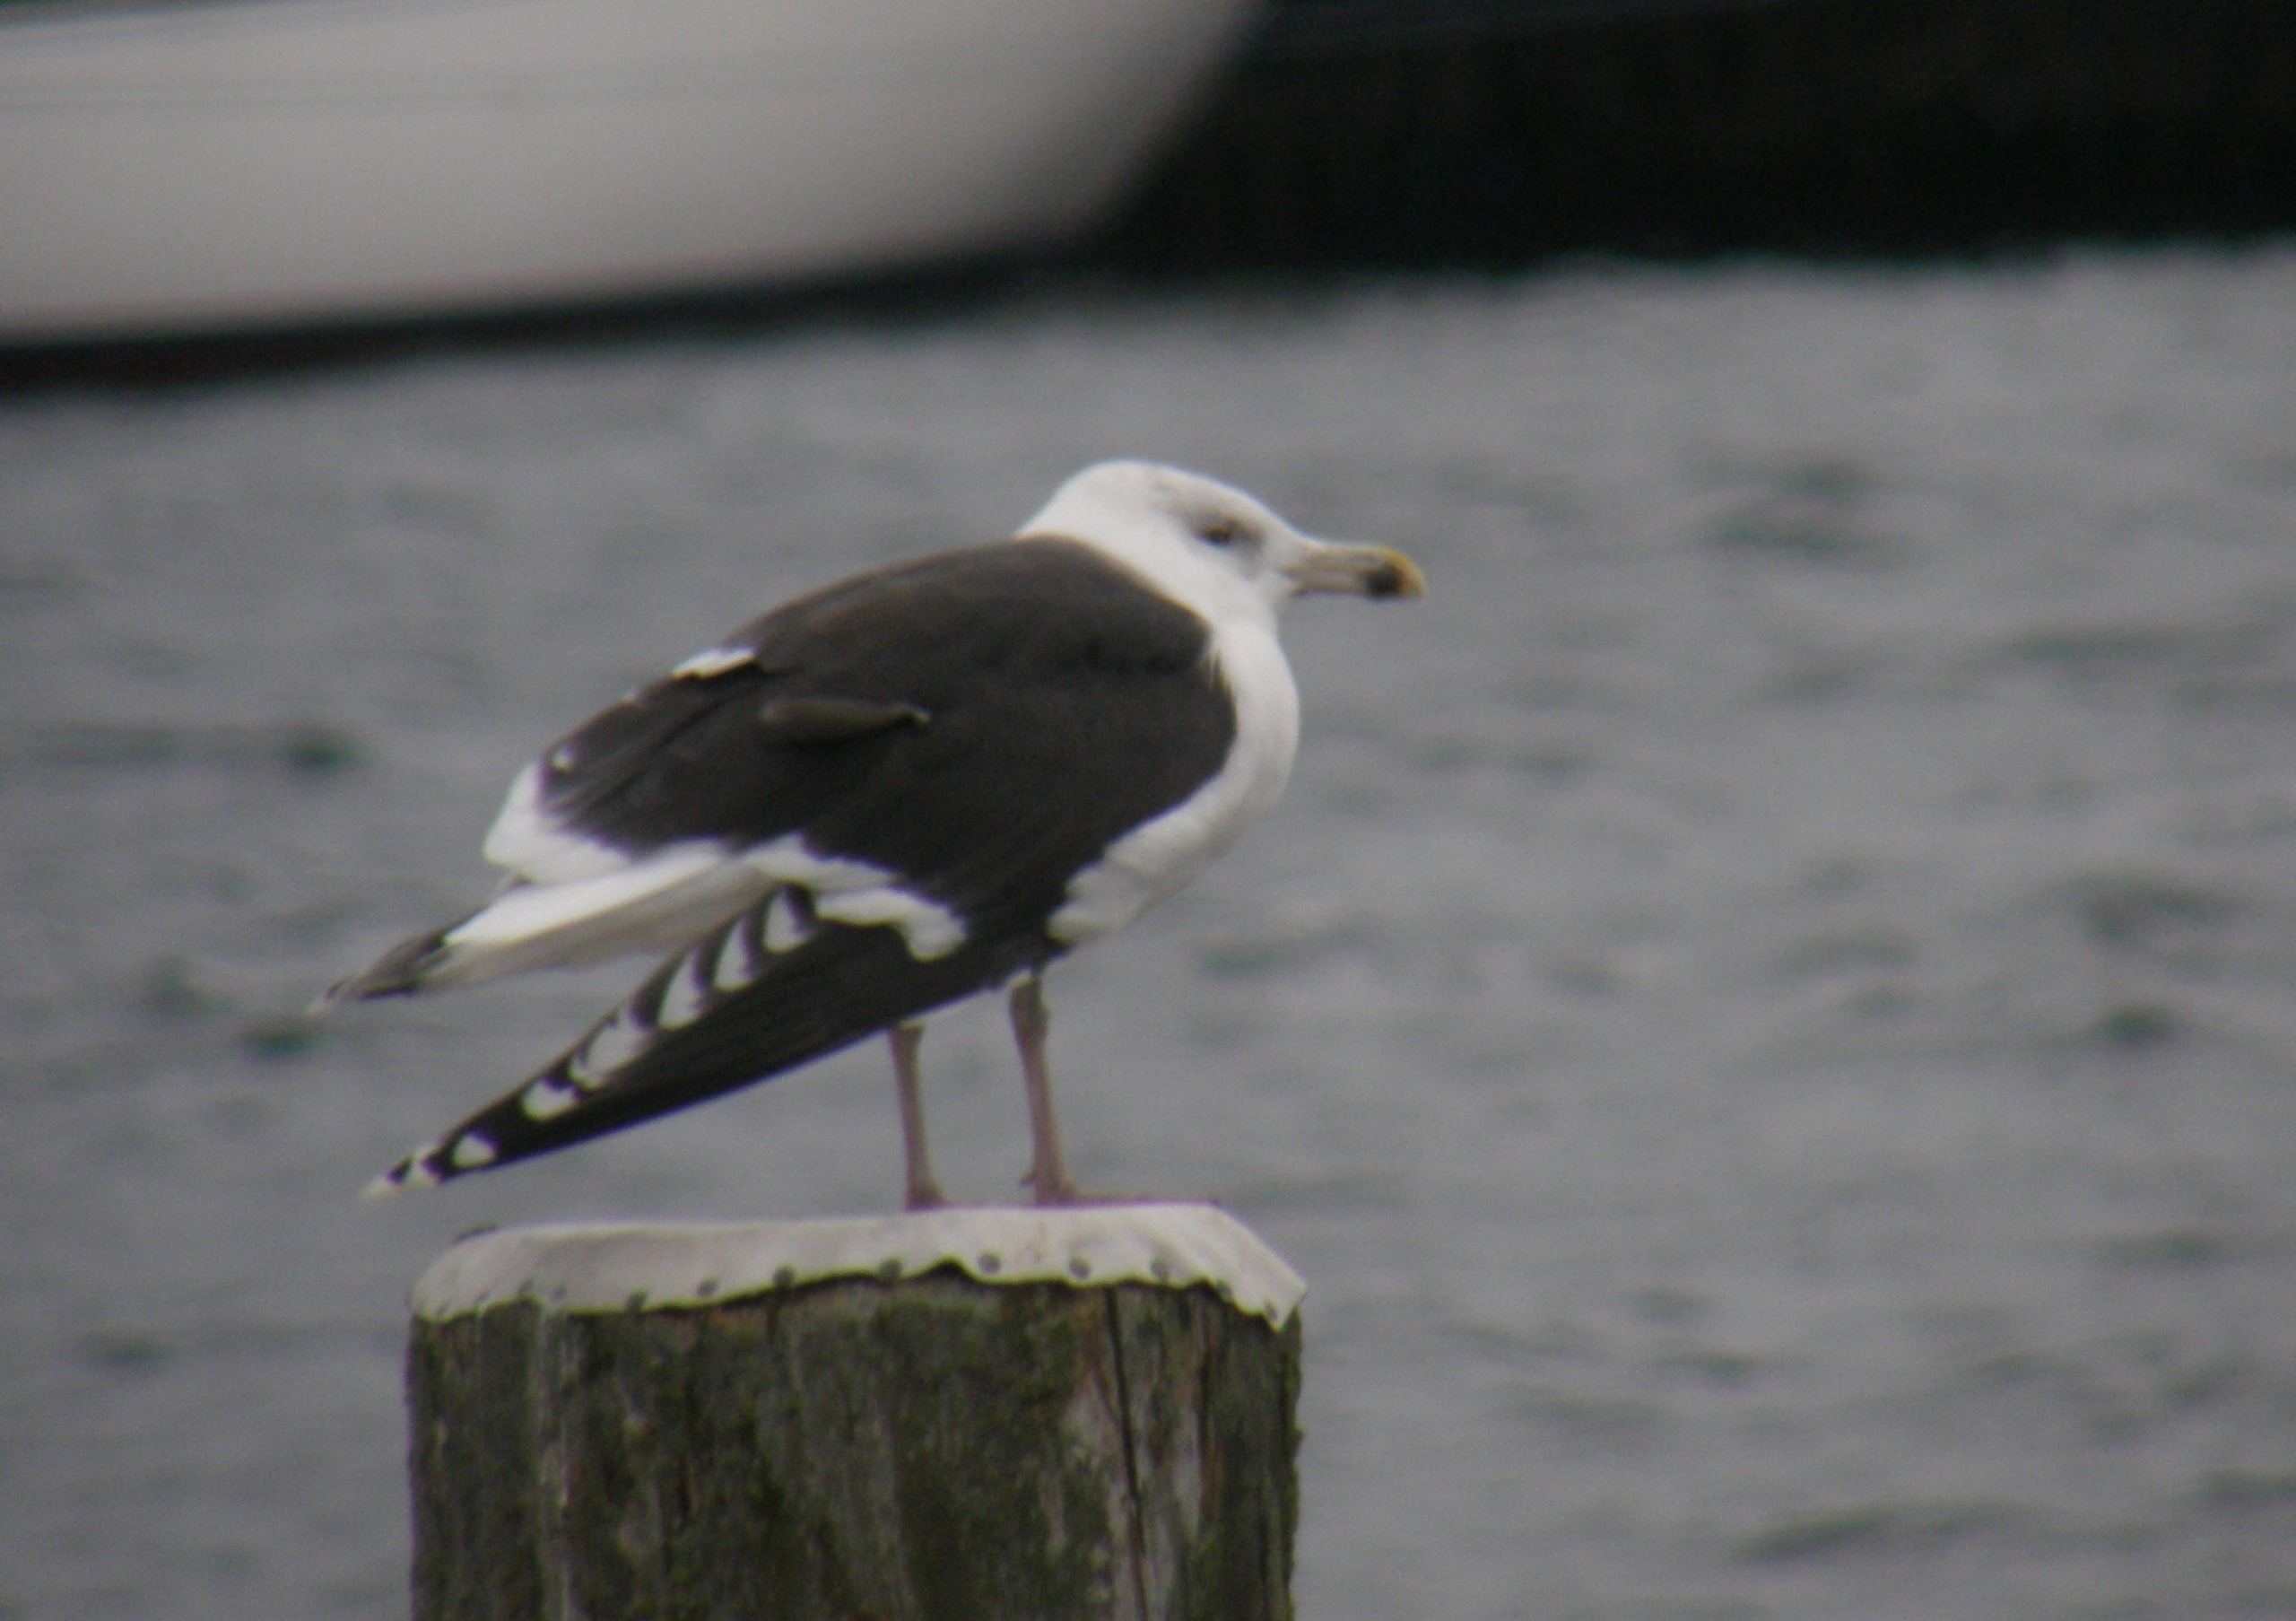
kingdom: Animalia
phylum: Chordata
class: Aves
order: Charadriiformes
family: Laridae
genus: Larus
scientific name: Larus marinus
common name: Svartbag
